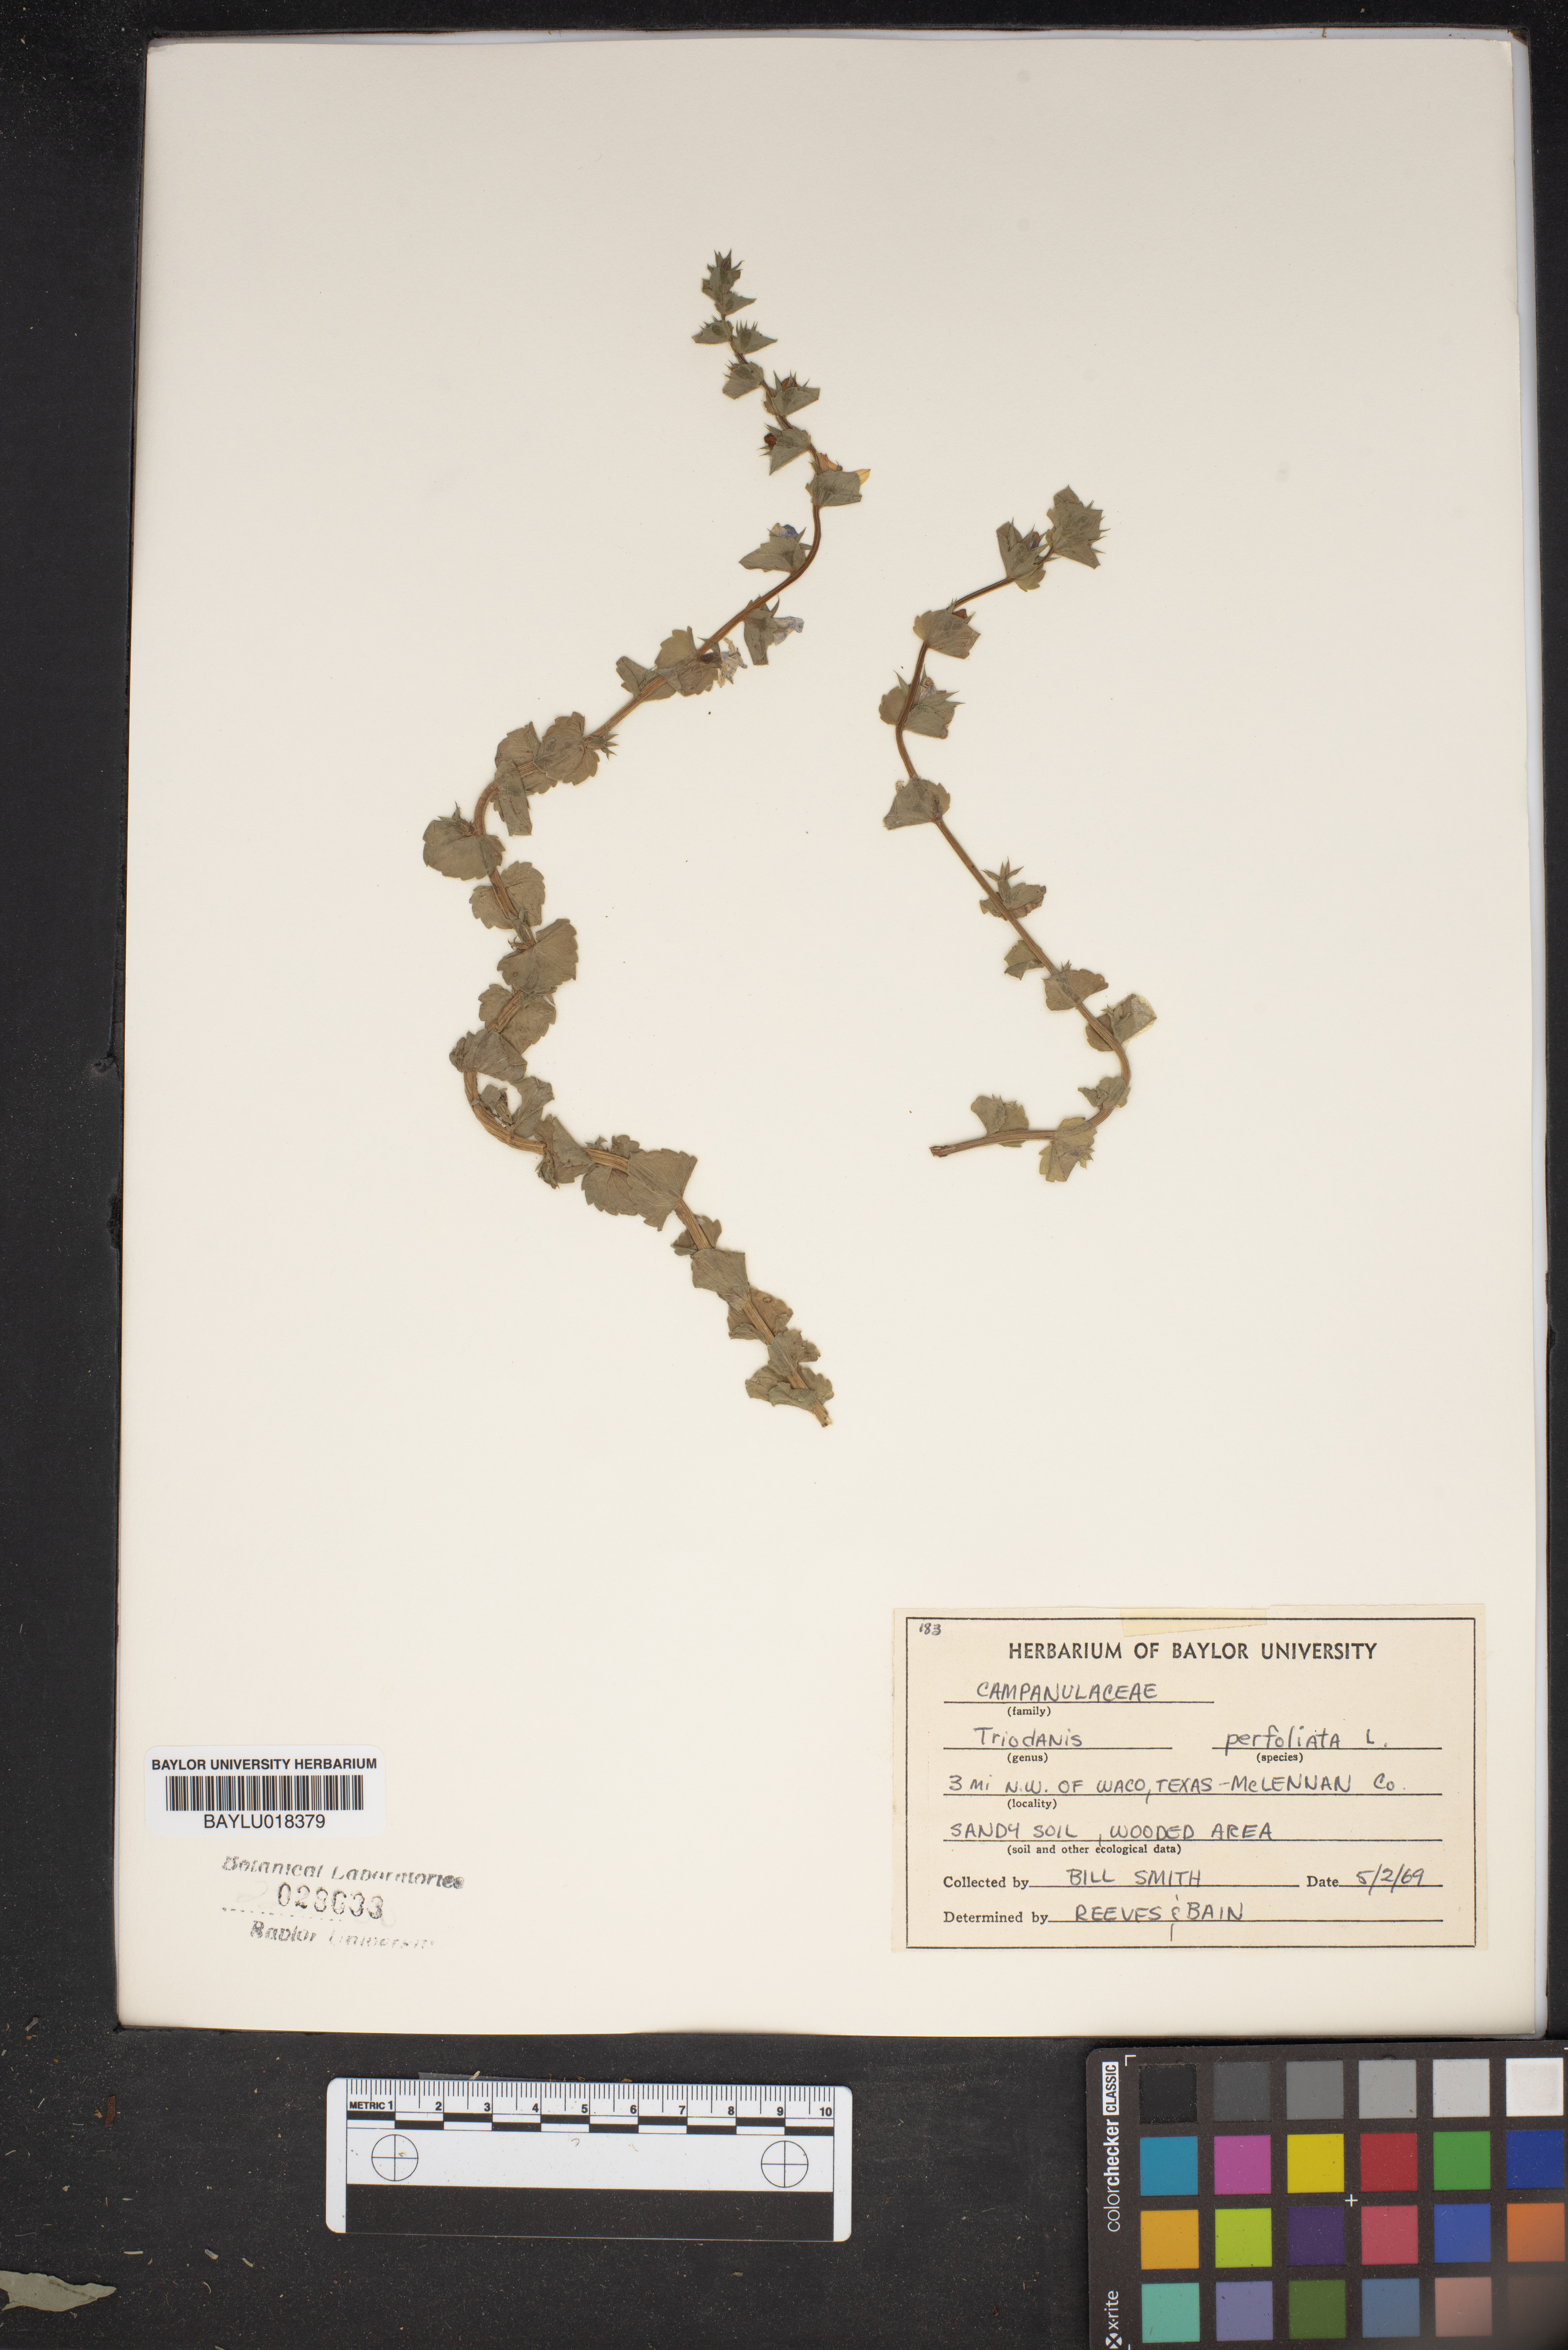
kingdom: Plantae
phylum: Tracheophyta
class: Magnoliopsida
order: Asterales
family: Campanulaceae
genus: Triodanis
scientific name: Triodanis perfoliata
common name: Clasping venus' looking-glass
